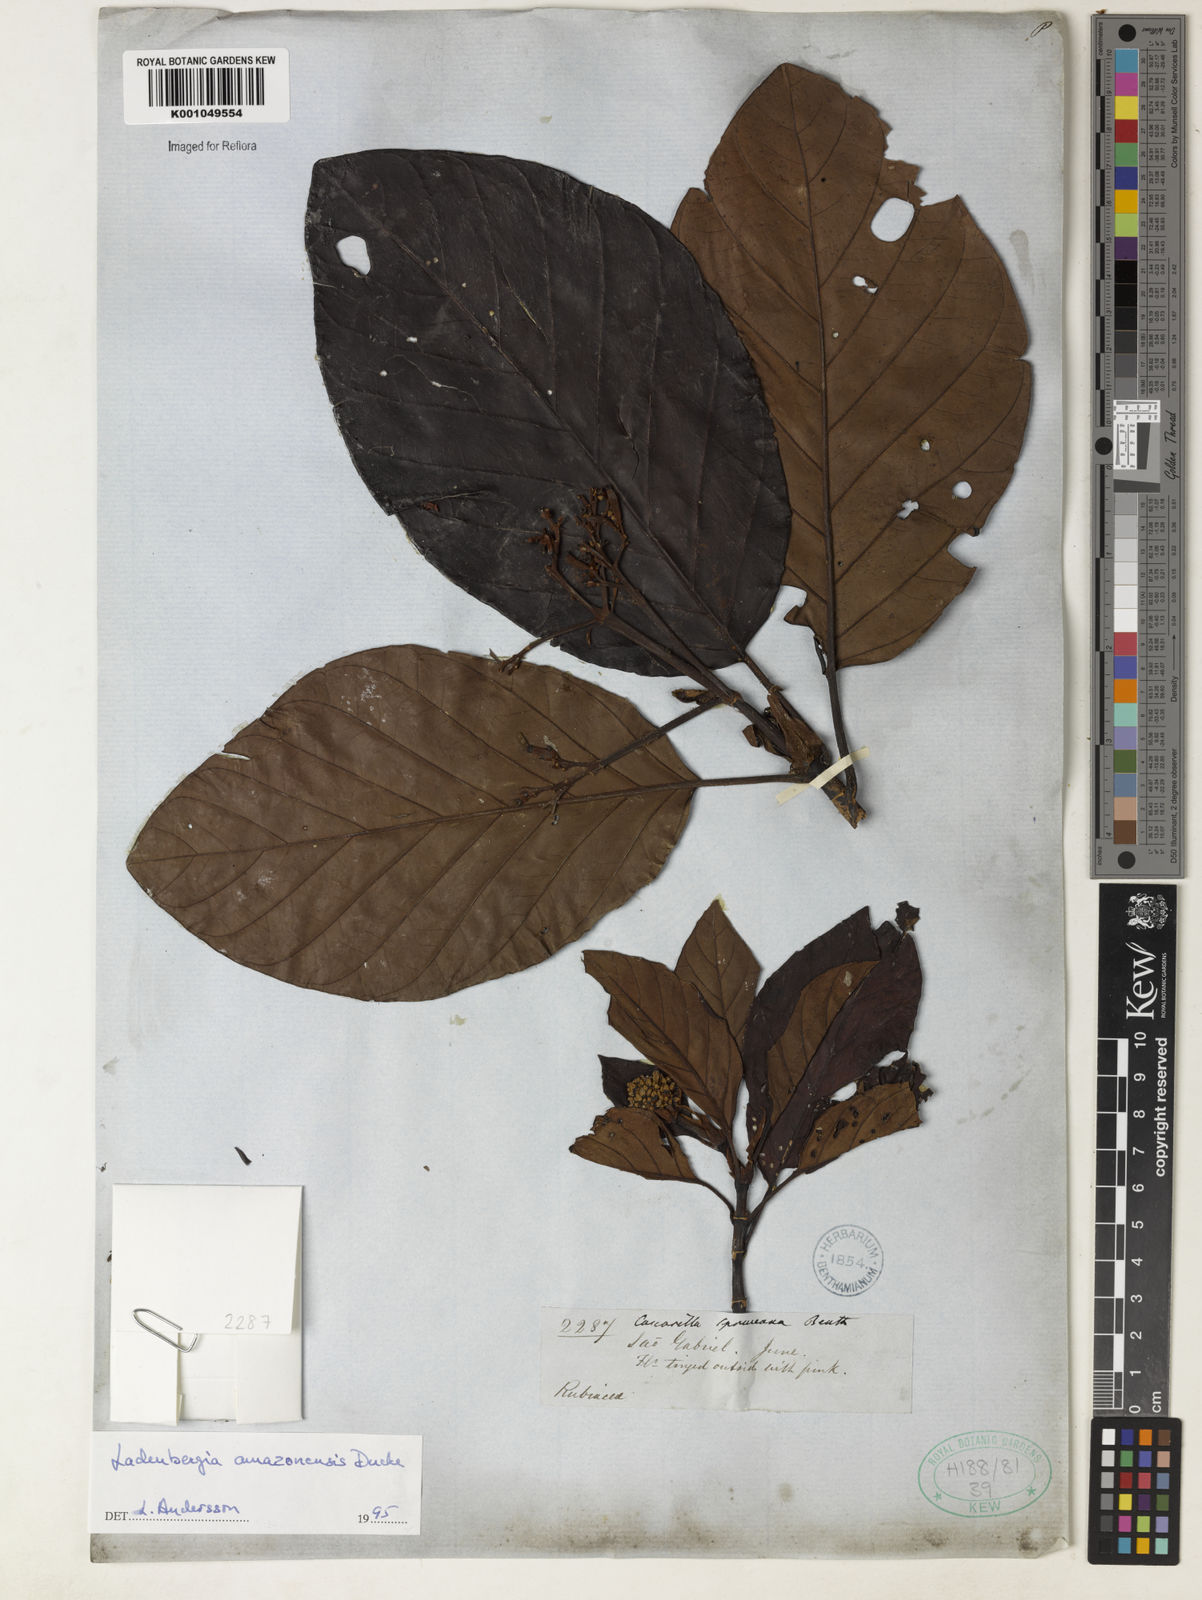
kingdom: Plantae
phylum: Tracheophyta
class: Magnoliopsida
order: Gentianales
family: Rubiaceae
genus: Ladenbergia
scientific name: Ladenbergia amazonensis
